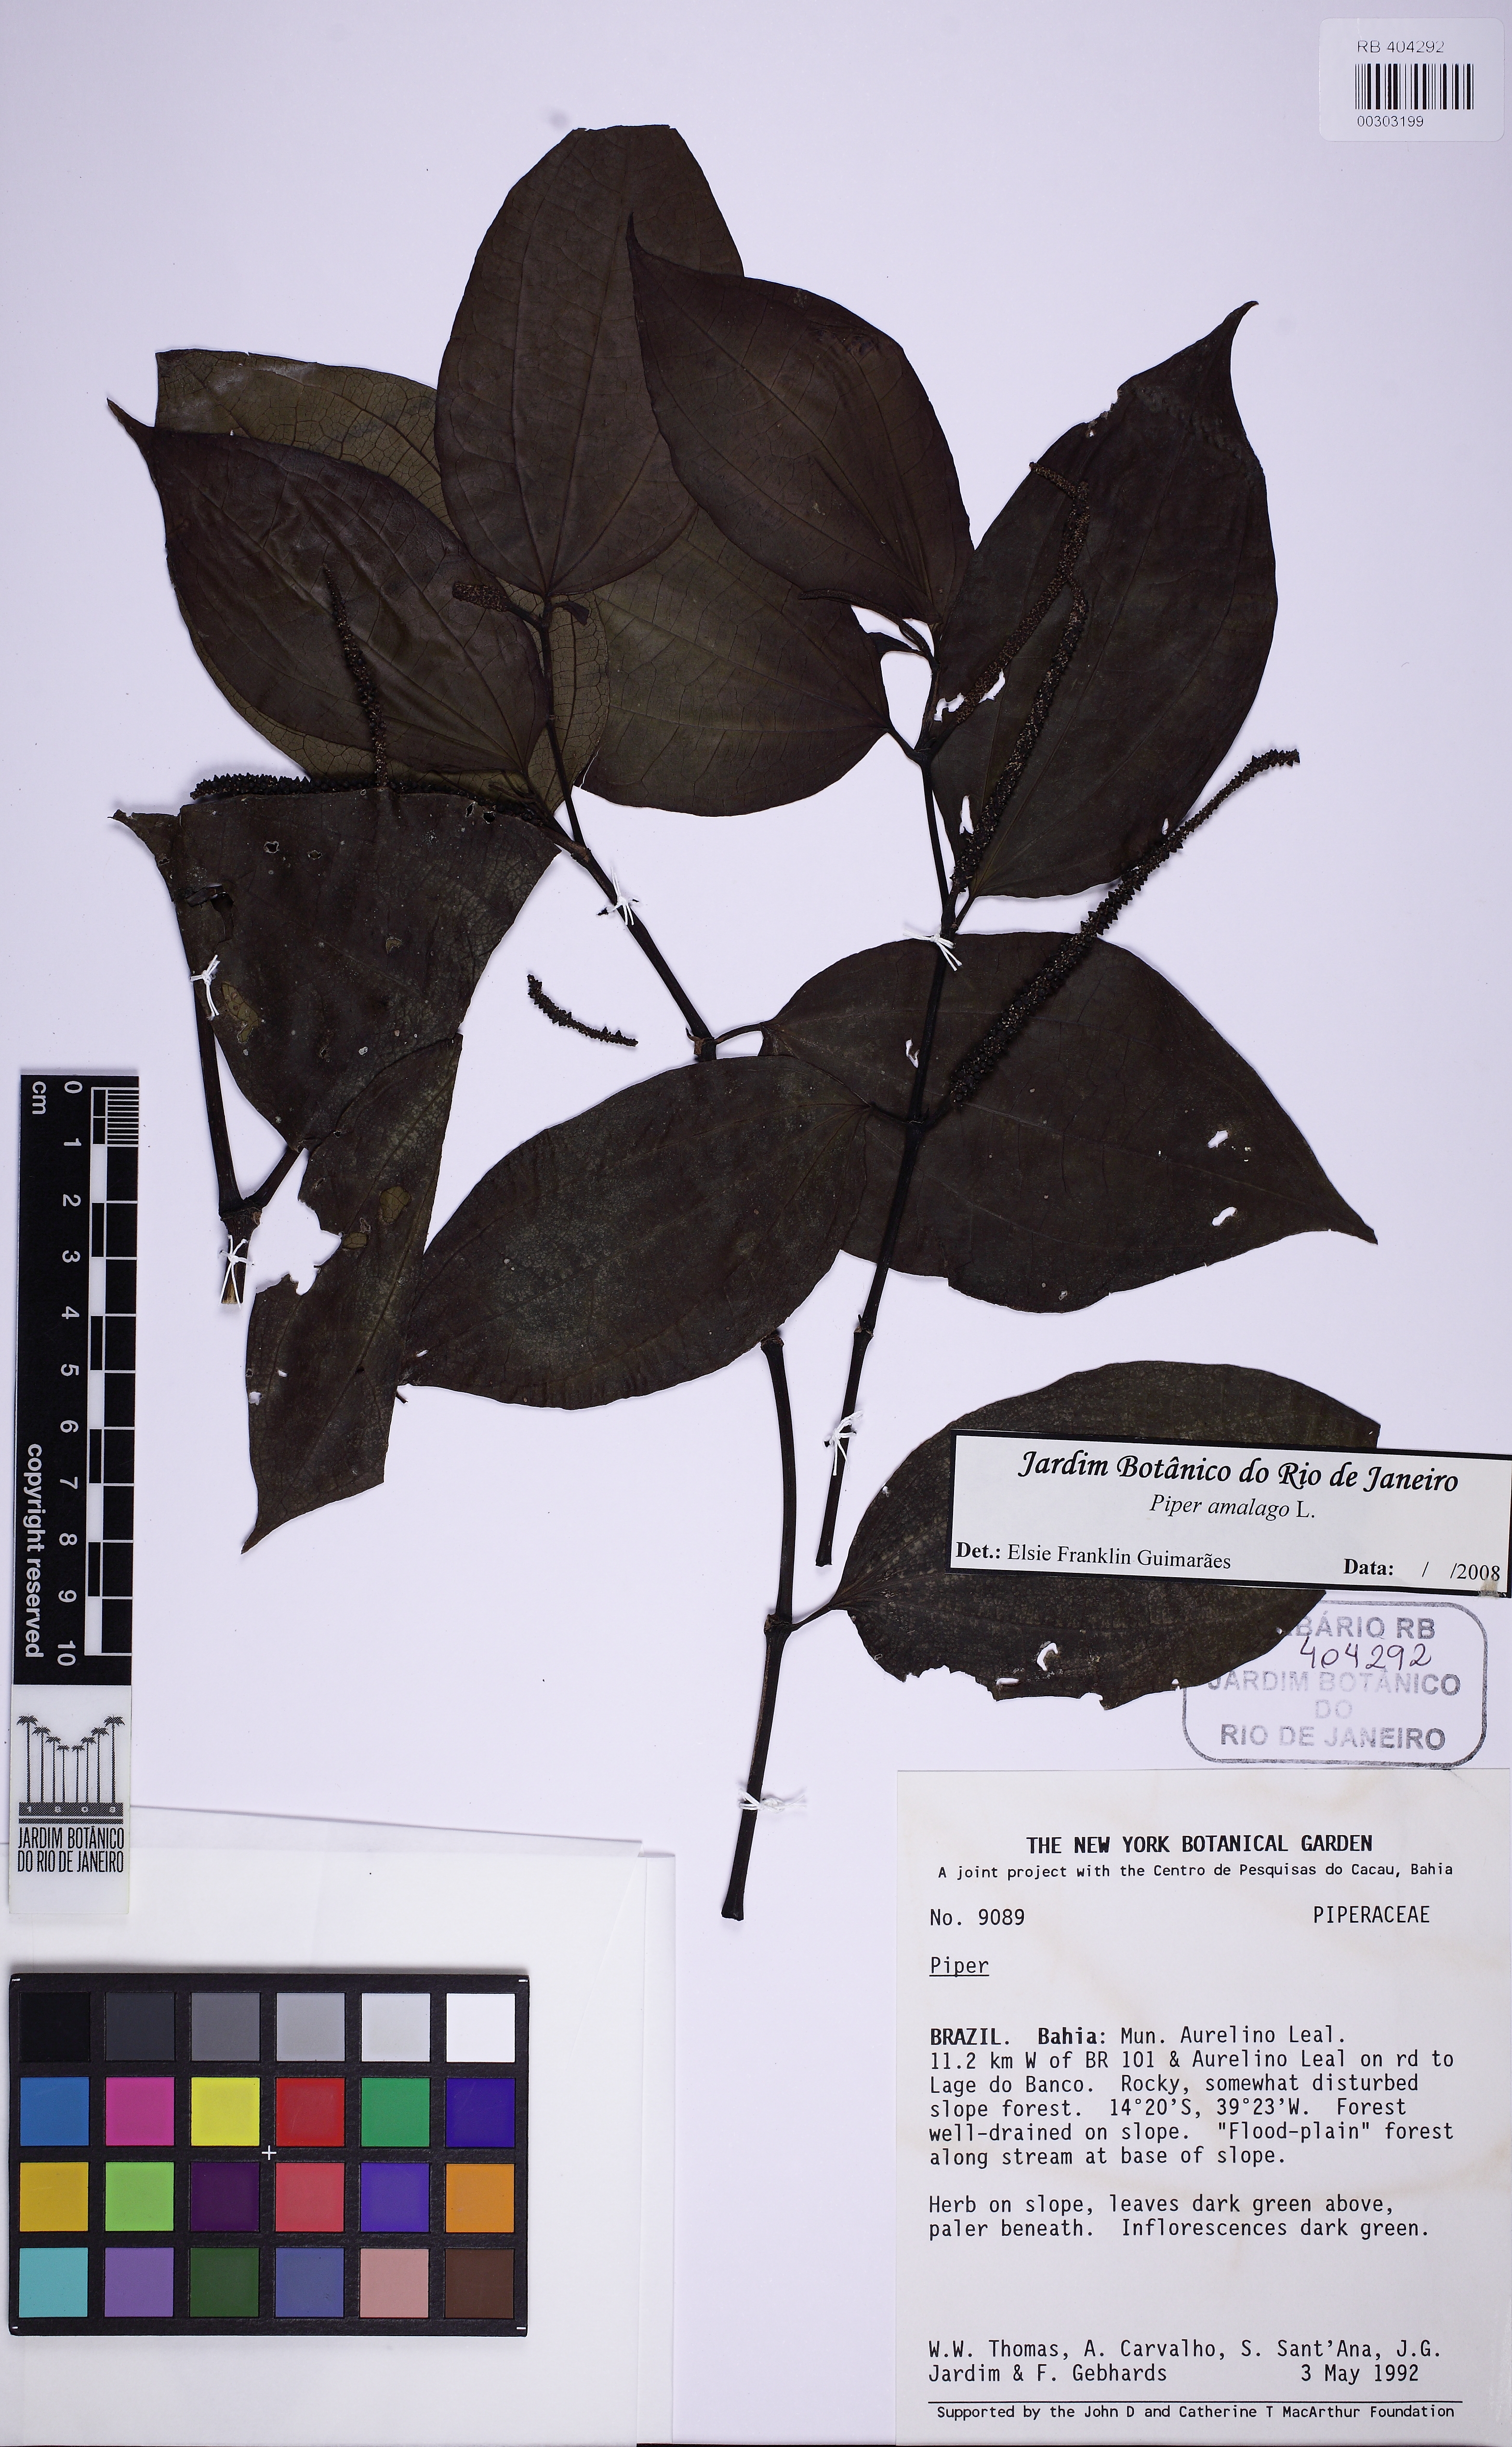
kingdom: Plantae
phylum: Tracheophyta
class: Magnoliopsida
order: Piperales
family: Piperaceae
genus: Piper
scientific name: Piper amalago
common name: Pepper-elder
